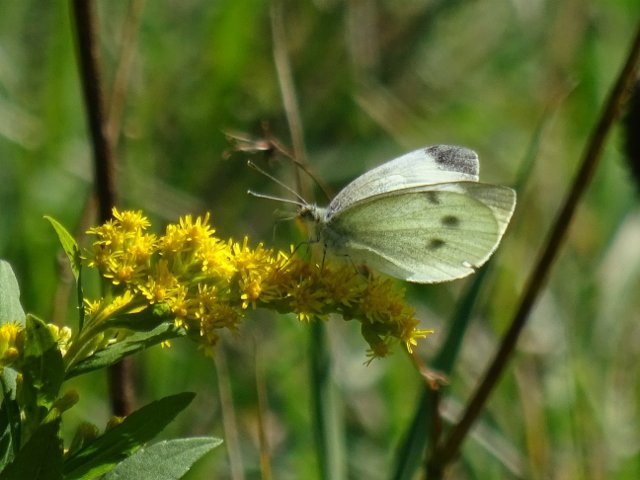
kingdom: Animalia
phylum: Arthropoda
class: Insecta
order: Lepidoptera
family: Pieridae
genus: Pieris
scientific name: Pieris rapae
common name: Cabbage White
